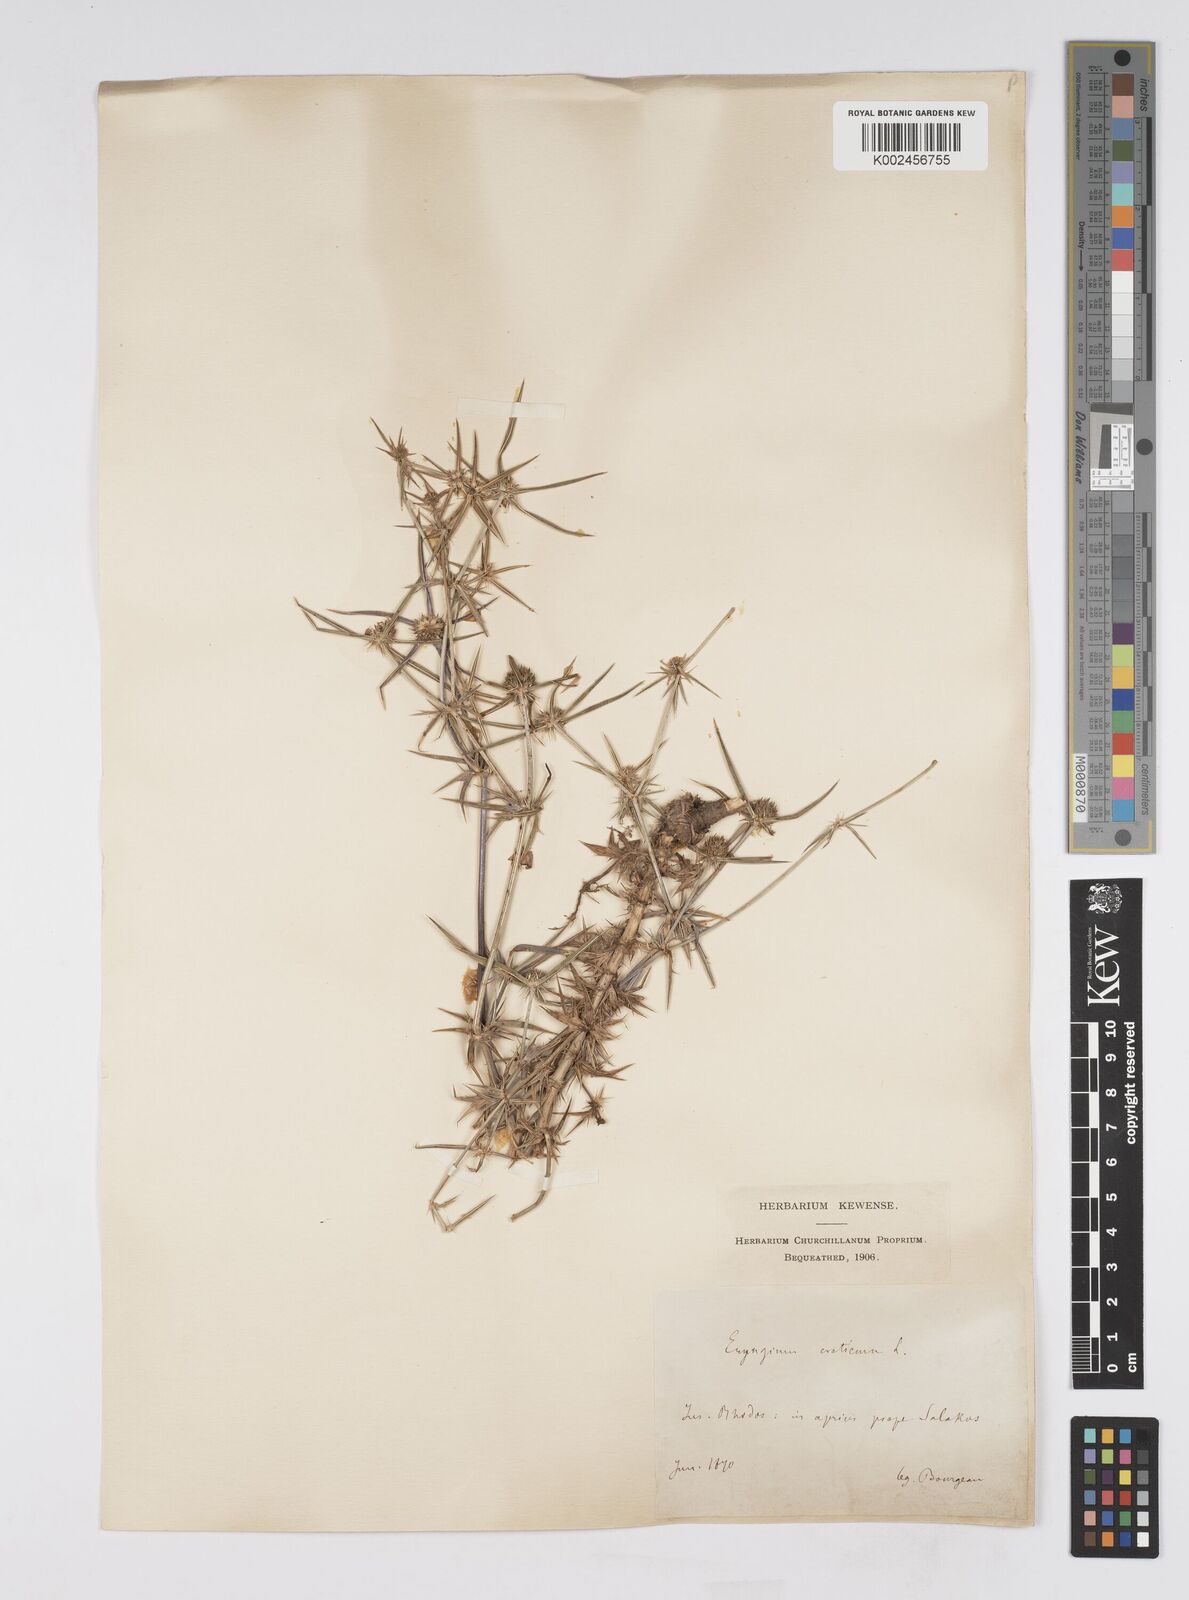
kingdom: Plantae
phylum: Tracheophyta
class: Magnoliopsida
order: Apiales
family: Apiaceae
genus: Eryngium
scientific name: Eryngium creticum
